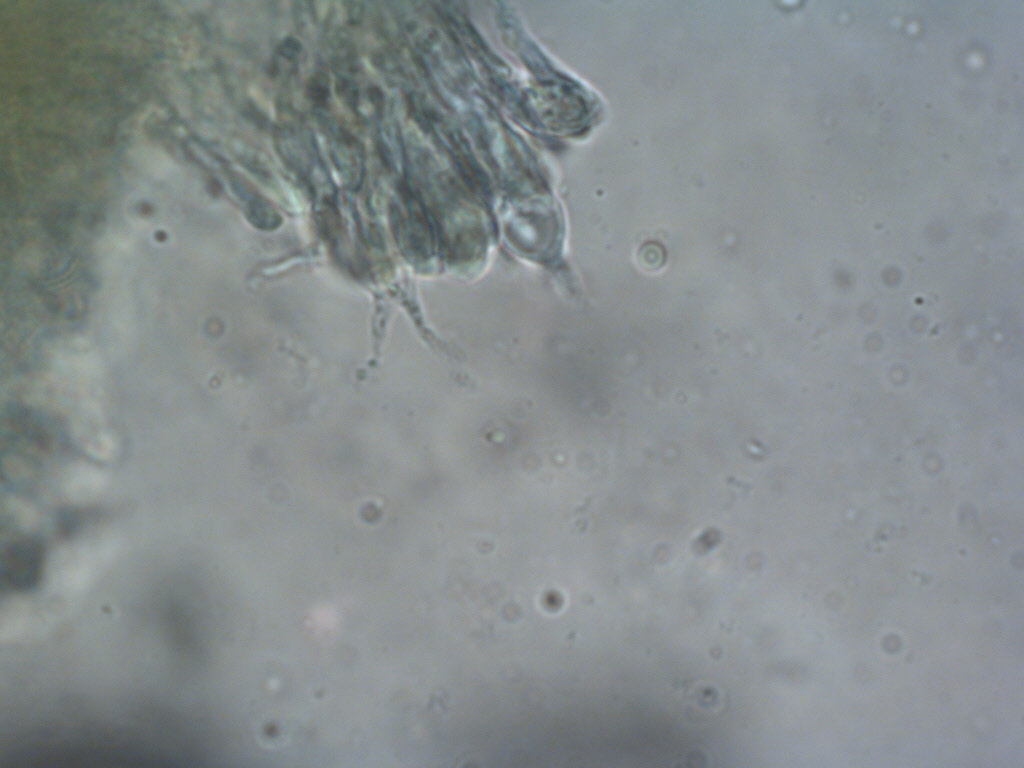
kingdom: Fungi
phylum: Basidiomycota
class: Agaricomycetes
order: Agaricales
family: Clavariaceae
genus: Clavulinopsis
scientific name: Clavulinopsis
